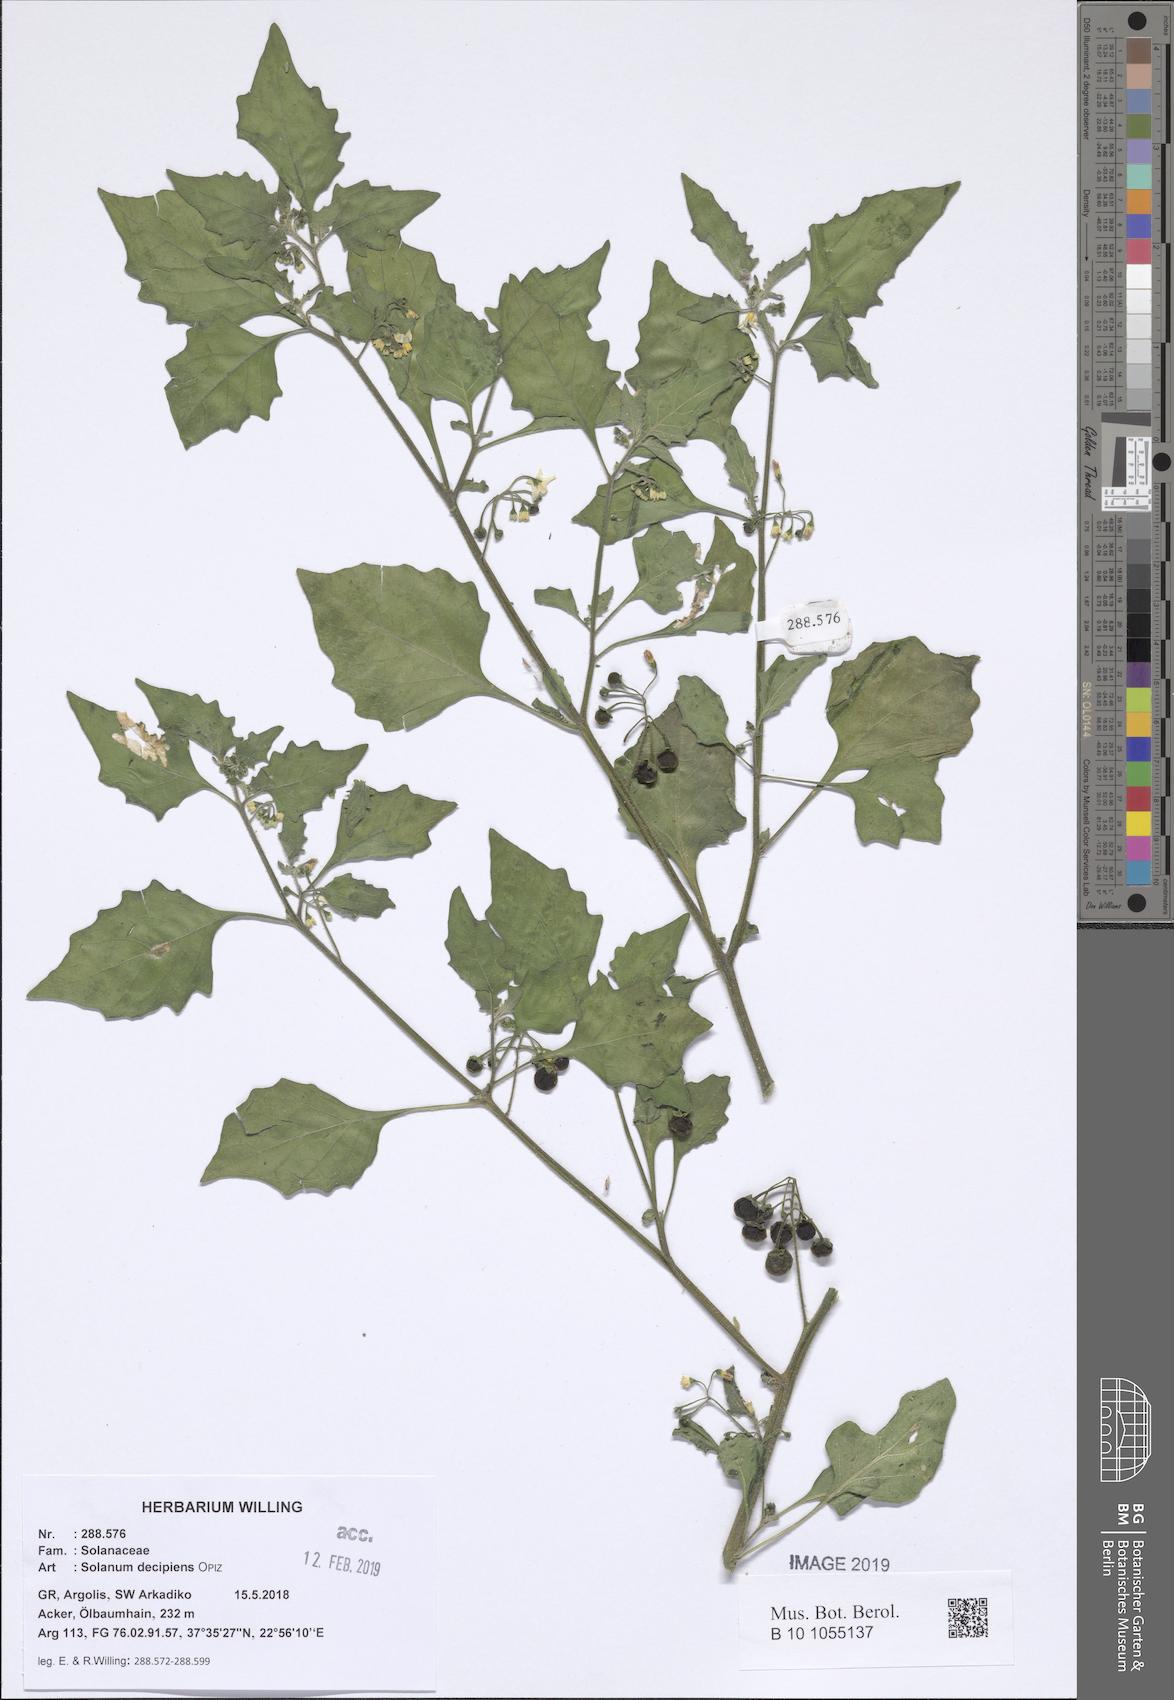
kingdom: Plantae
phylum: Tracheophyta
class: Magnoliopsida
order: Solanales
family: Solanaceae
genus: Solanum
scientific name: Solanum decipiens
